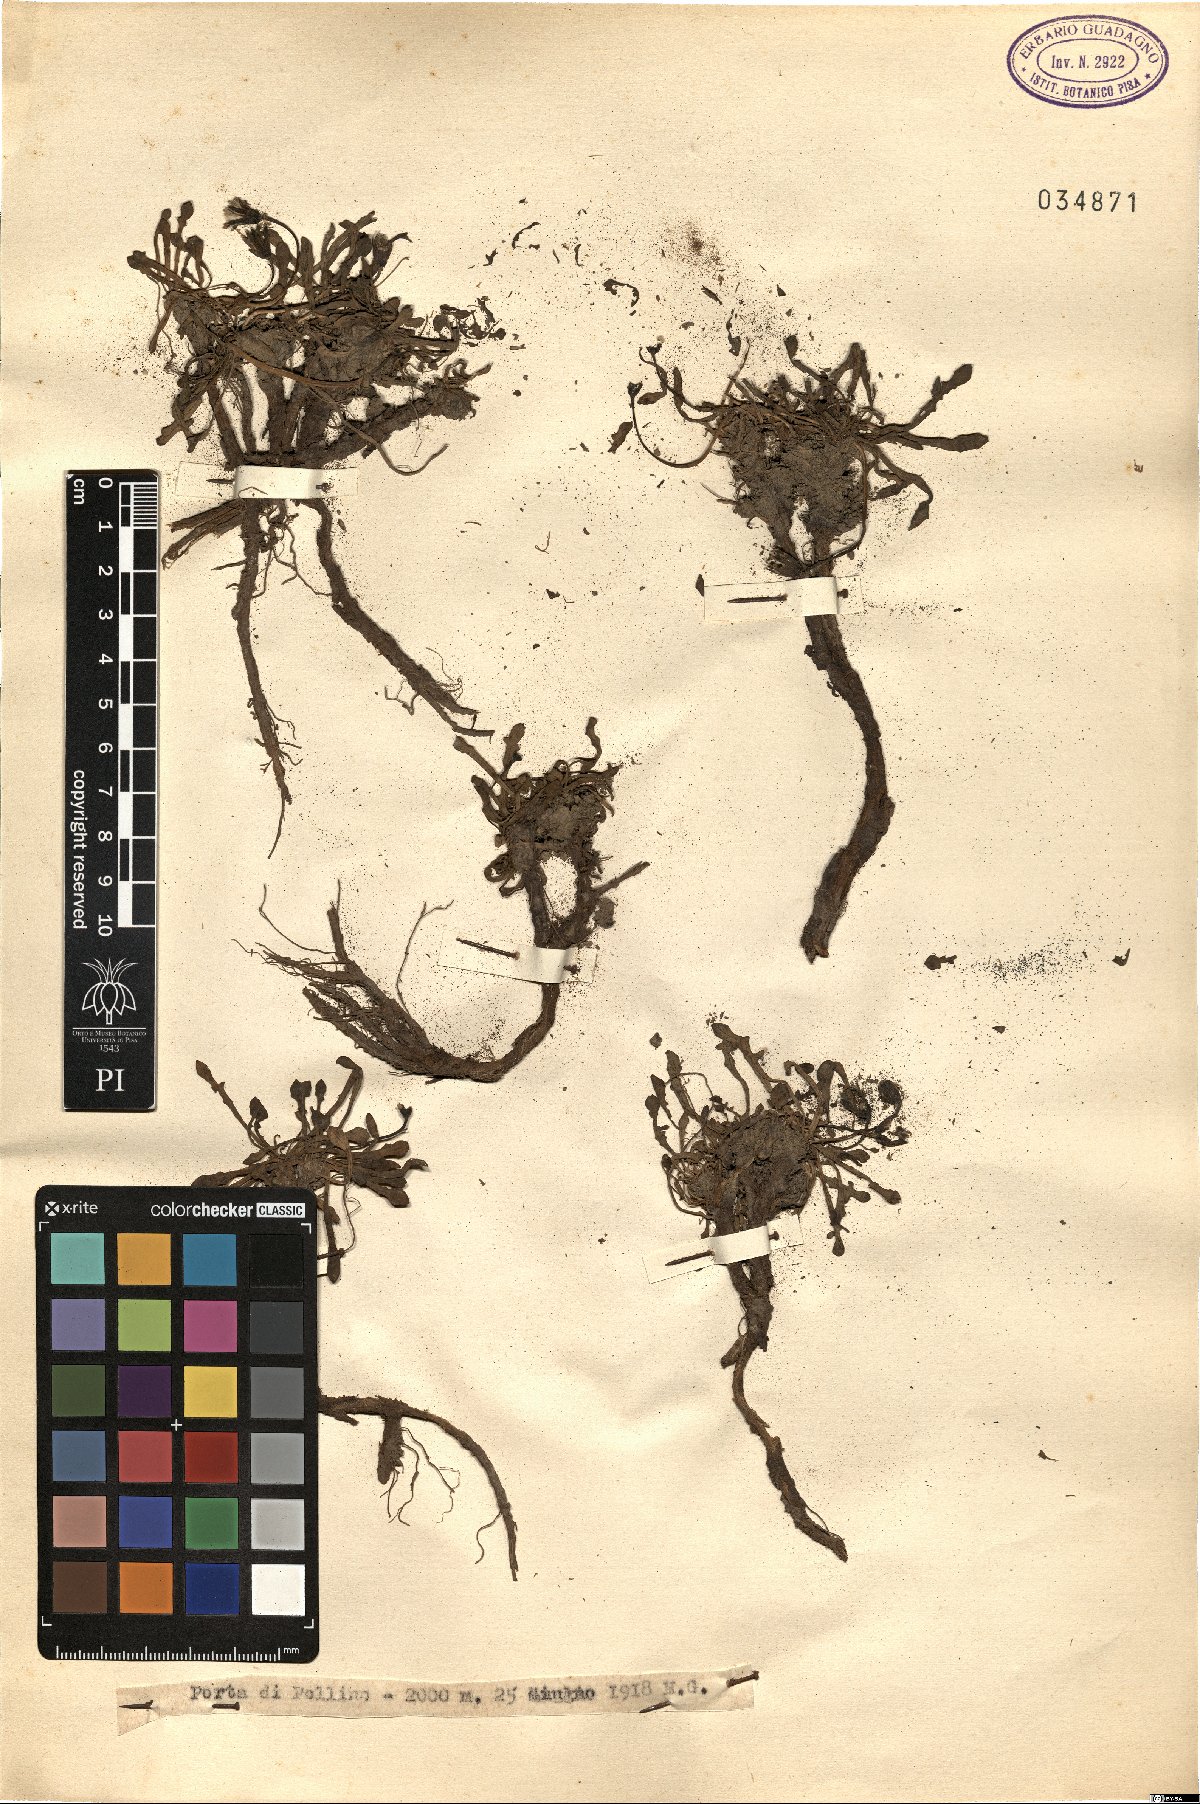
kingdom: Plantae
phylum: Tracheophyta
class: Magnoliopsida
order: Asterales
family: Asteraceae
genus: Hypochaeris
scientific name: Hypochaeris
